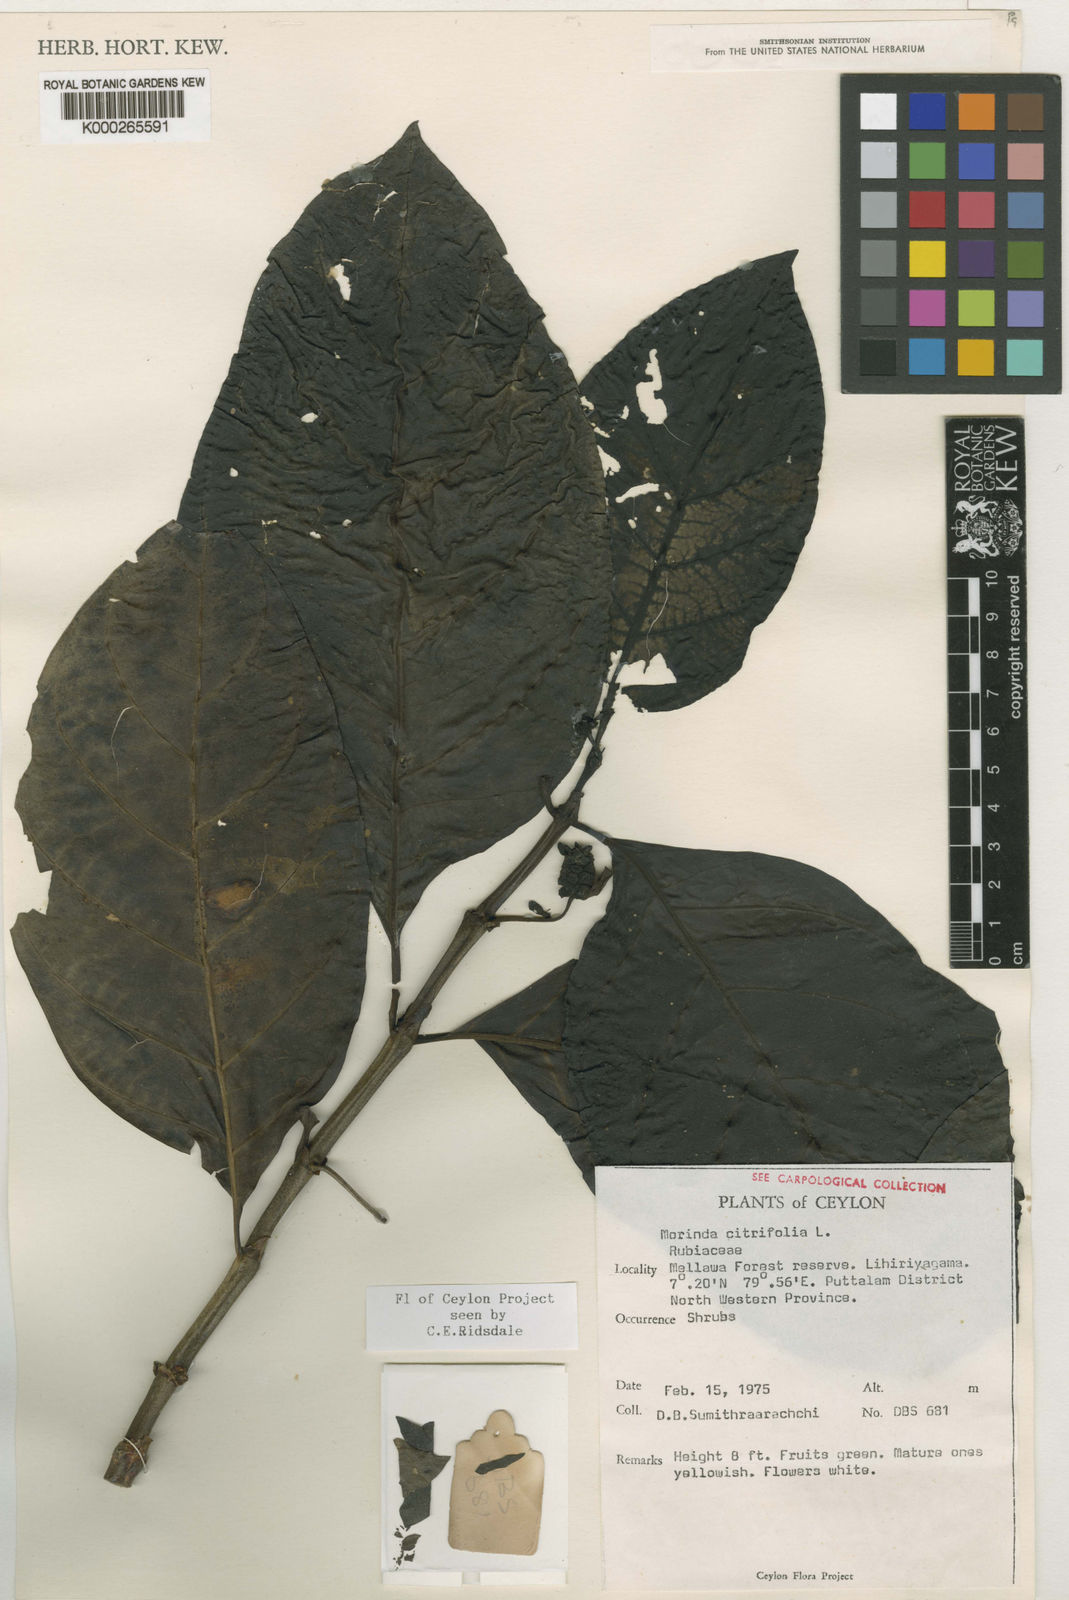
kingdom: Plantae
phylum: Tracheophyta
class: Magnoliopsida
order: Gentianales
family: Rubiaceae
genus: Morinda
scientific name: Morinda citrifolia
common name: Indian-mulberry
